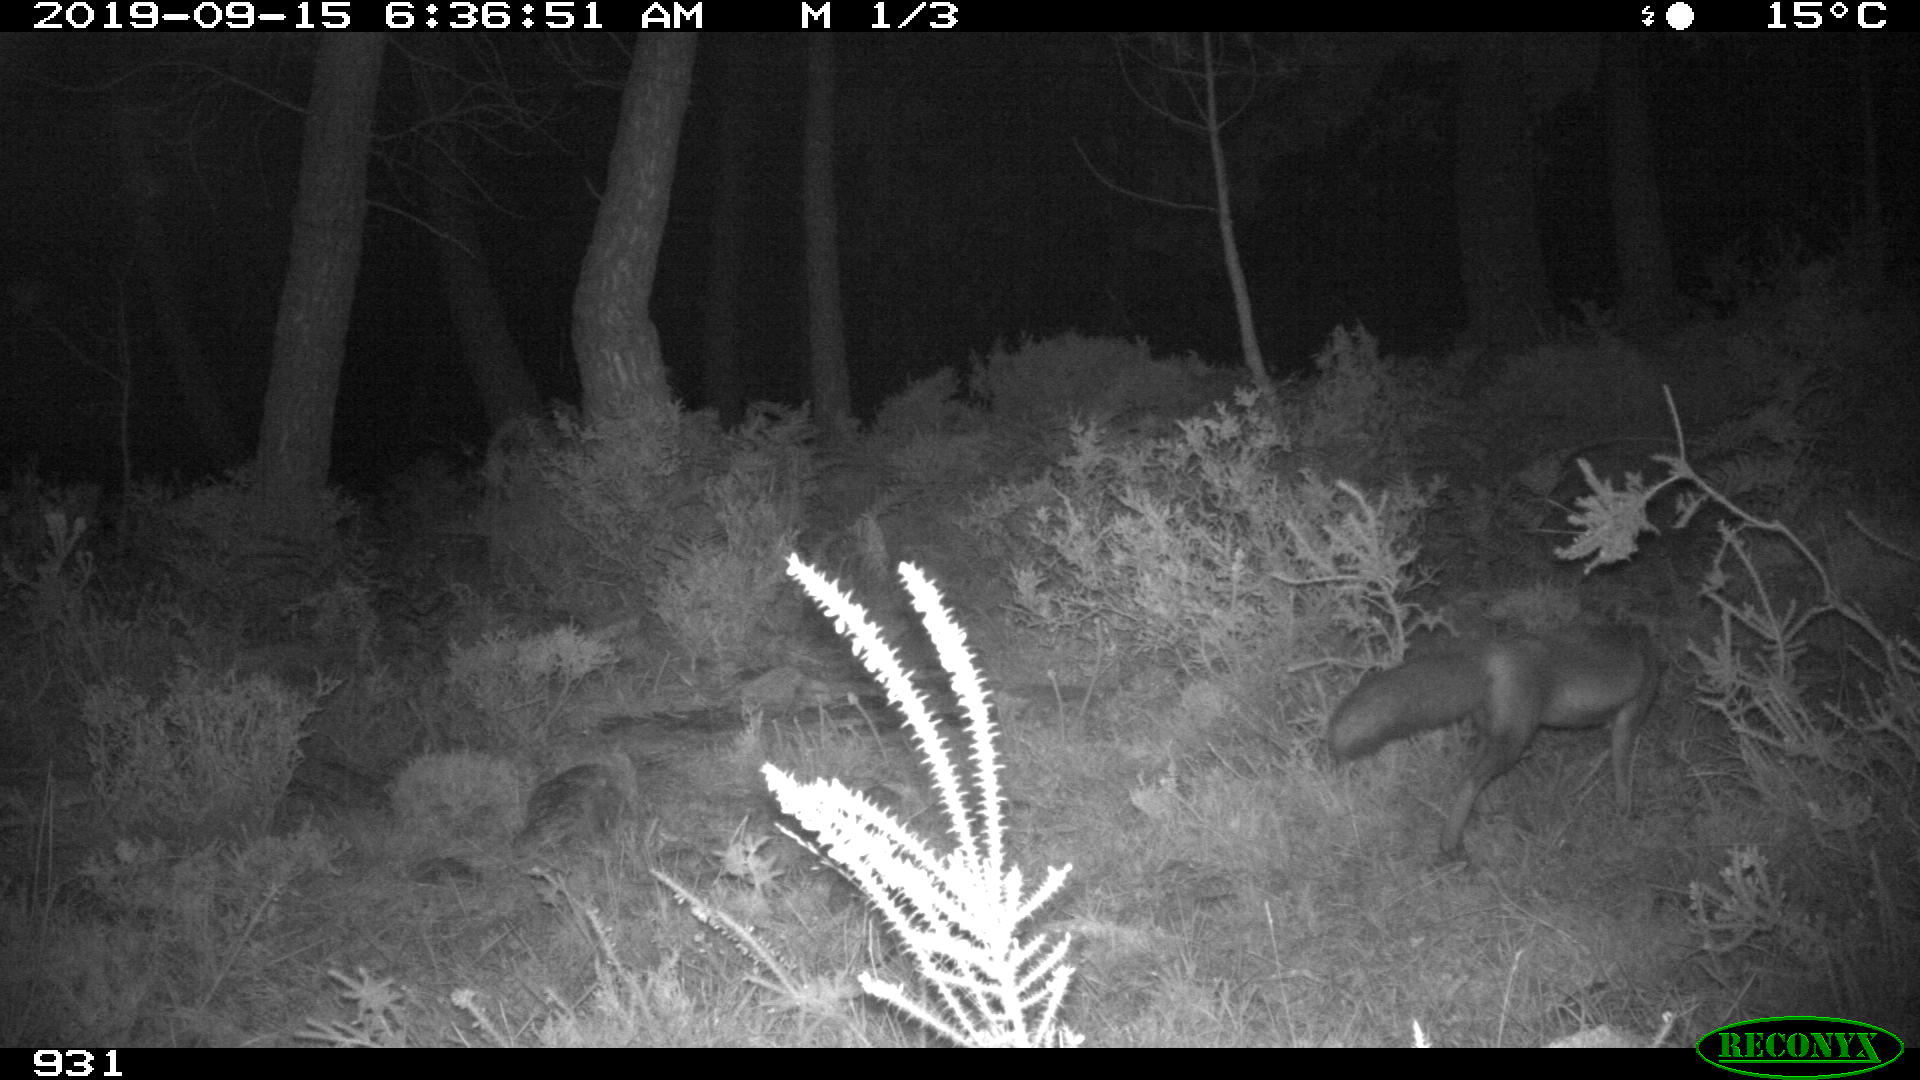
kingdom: Animalia
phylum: Chordata
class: Mammalia
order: Carnivora
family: Canidae
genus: Vulpes
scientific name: Vulpes vulpes
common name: Red fox
